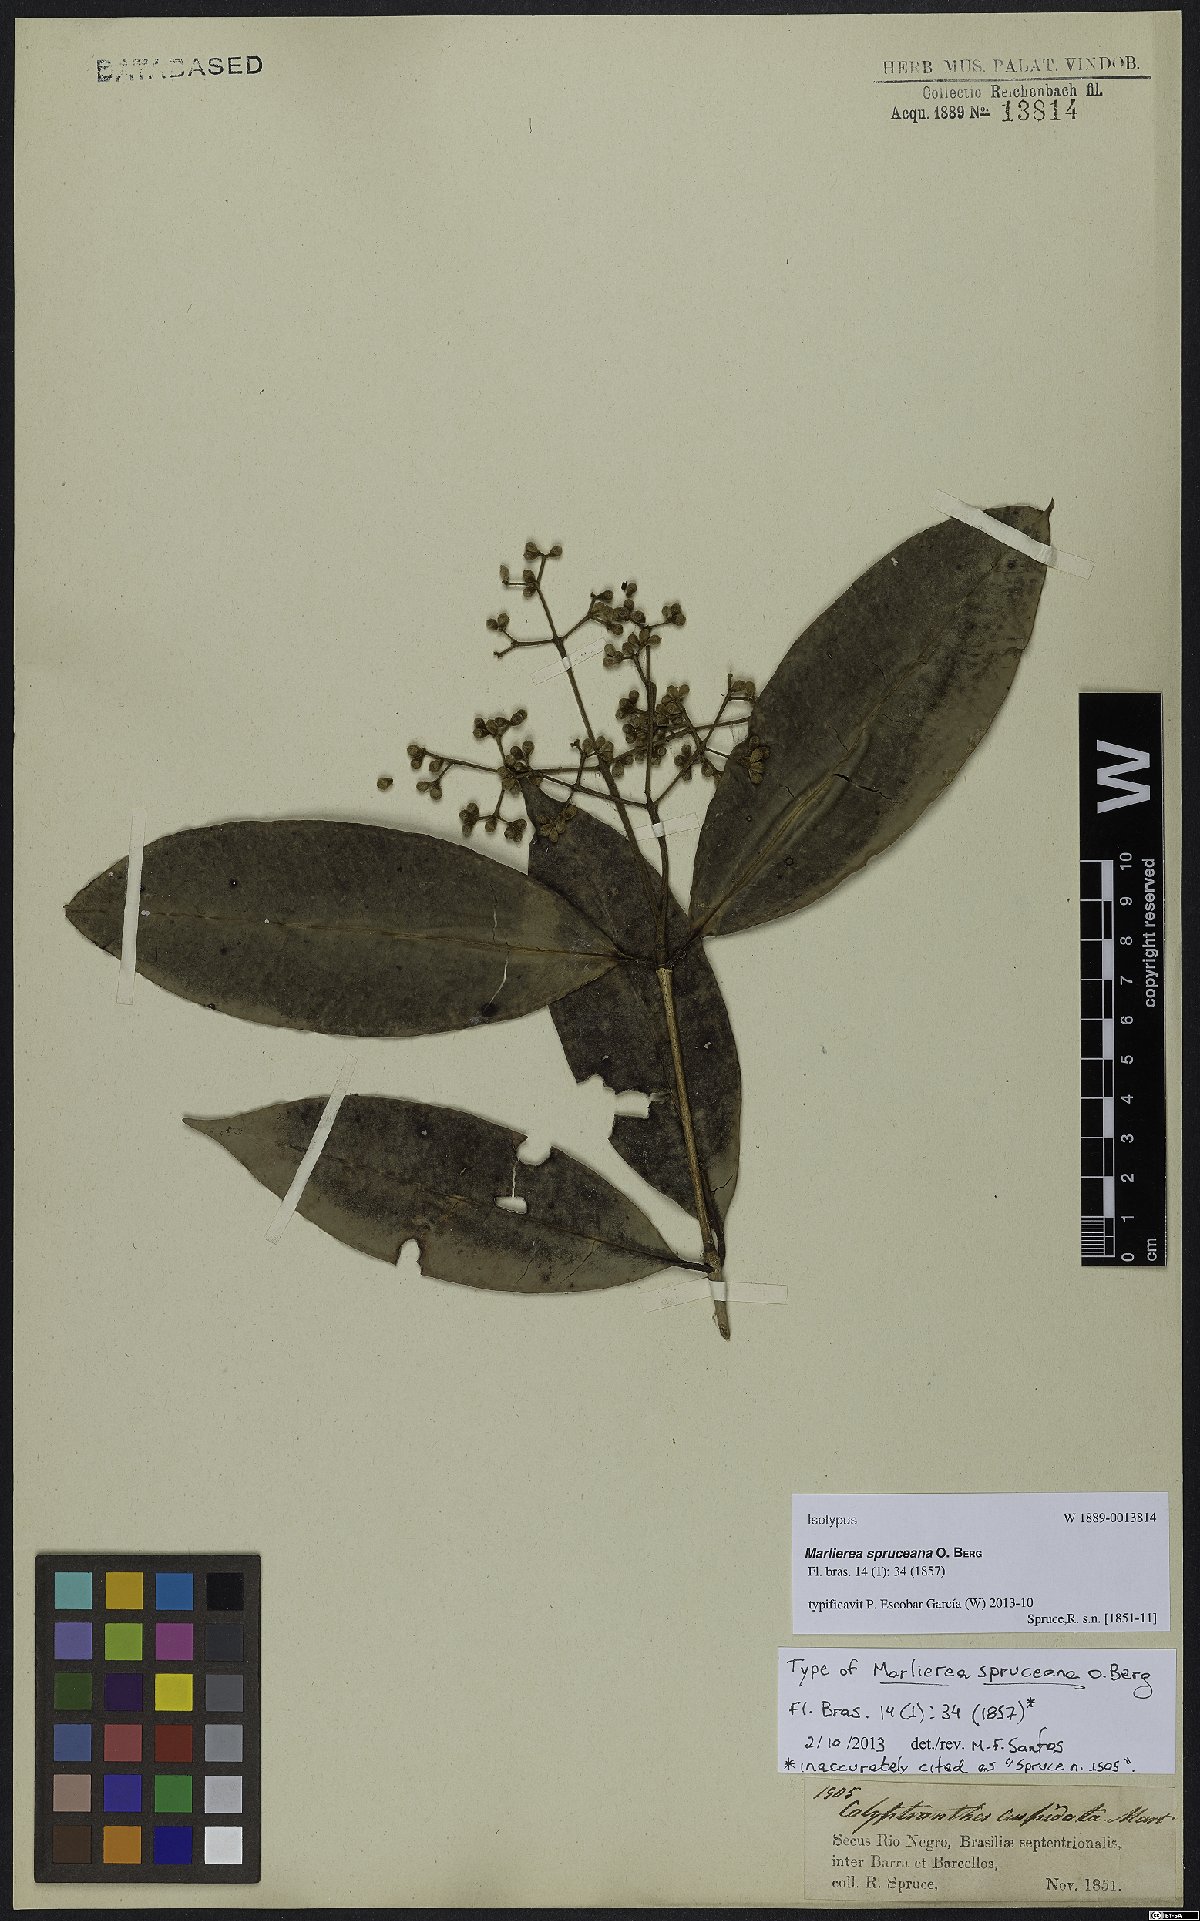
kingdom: Plantae
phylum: Tracheophyta
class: Magnoliopsida
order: Myrtales
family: Myrtaceae
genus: Myrcia
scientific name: Myrcia argentigemma
